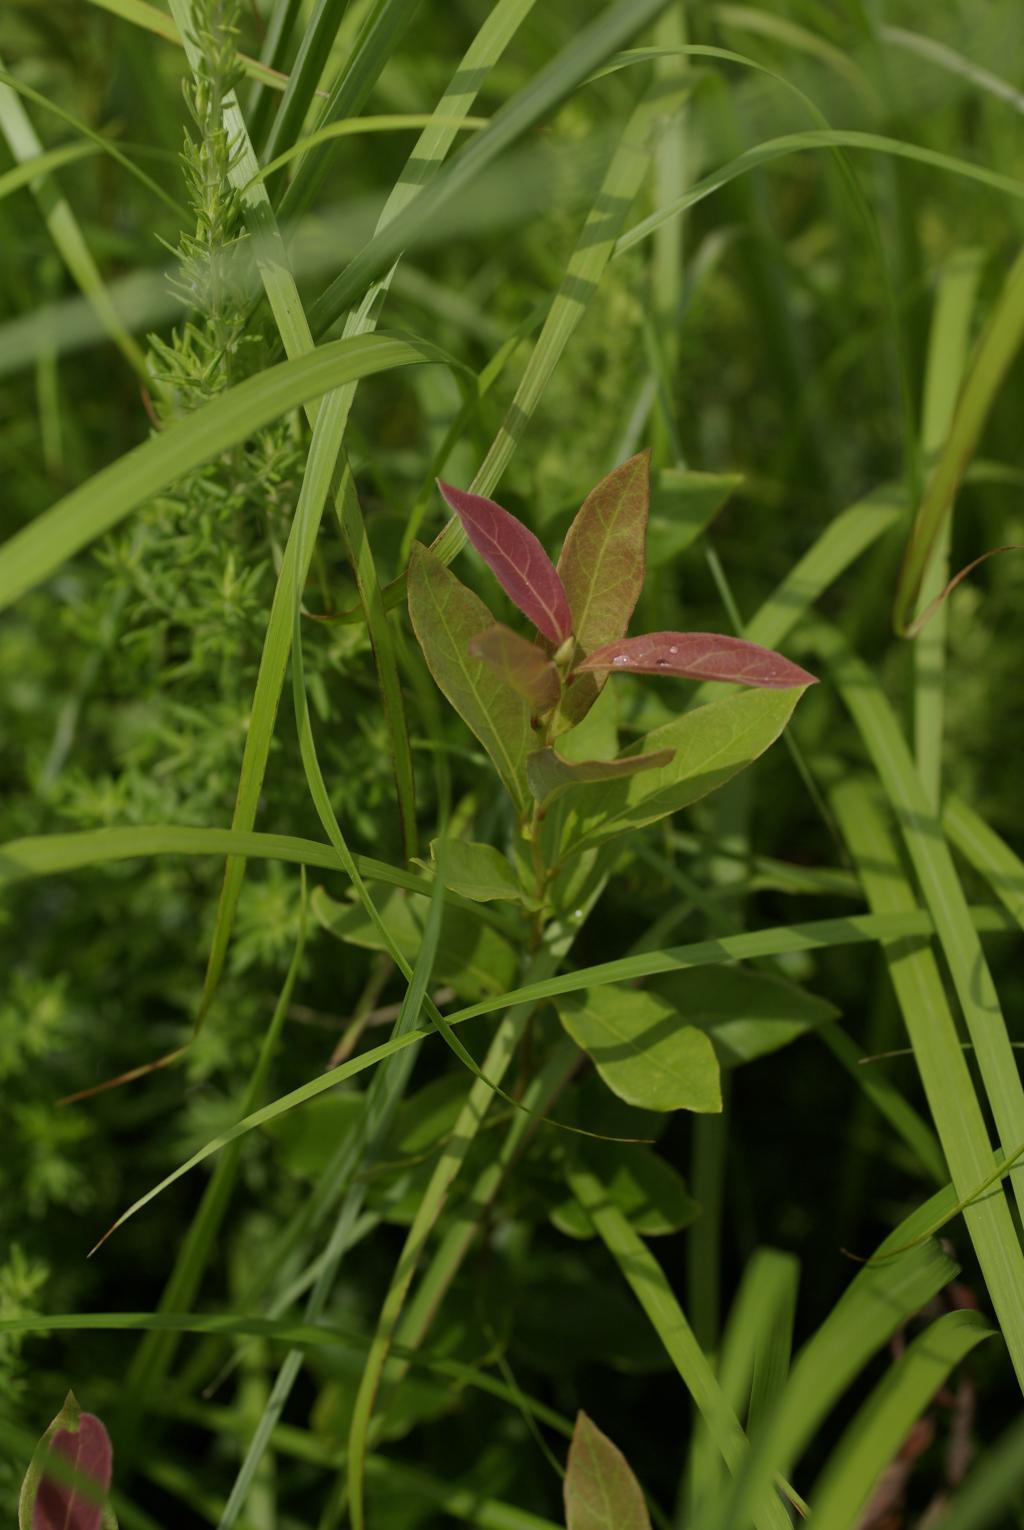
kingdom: Plantae
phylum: Tracheophyta
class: Magnoliopsida
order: Laurales
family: Lauraceae
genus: Lindera
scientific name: Lindera glauca
